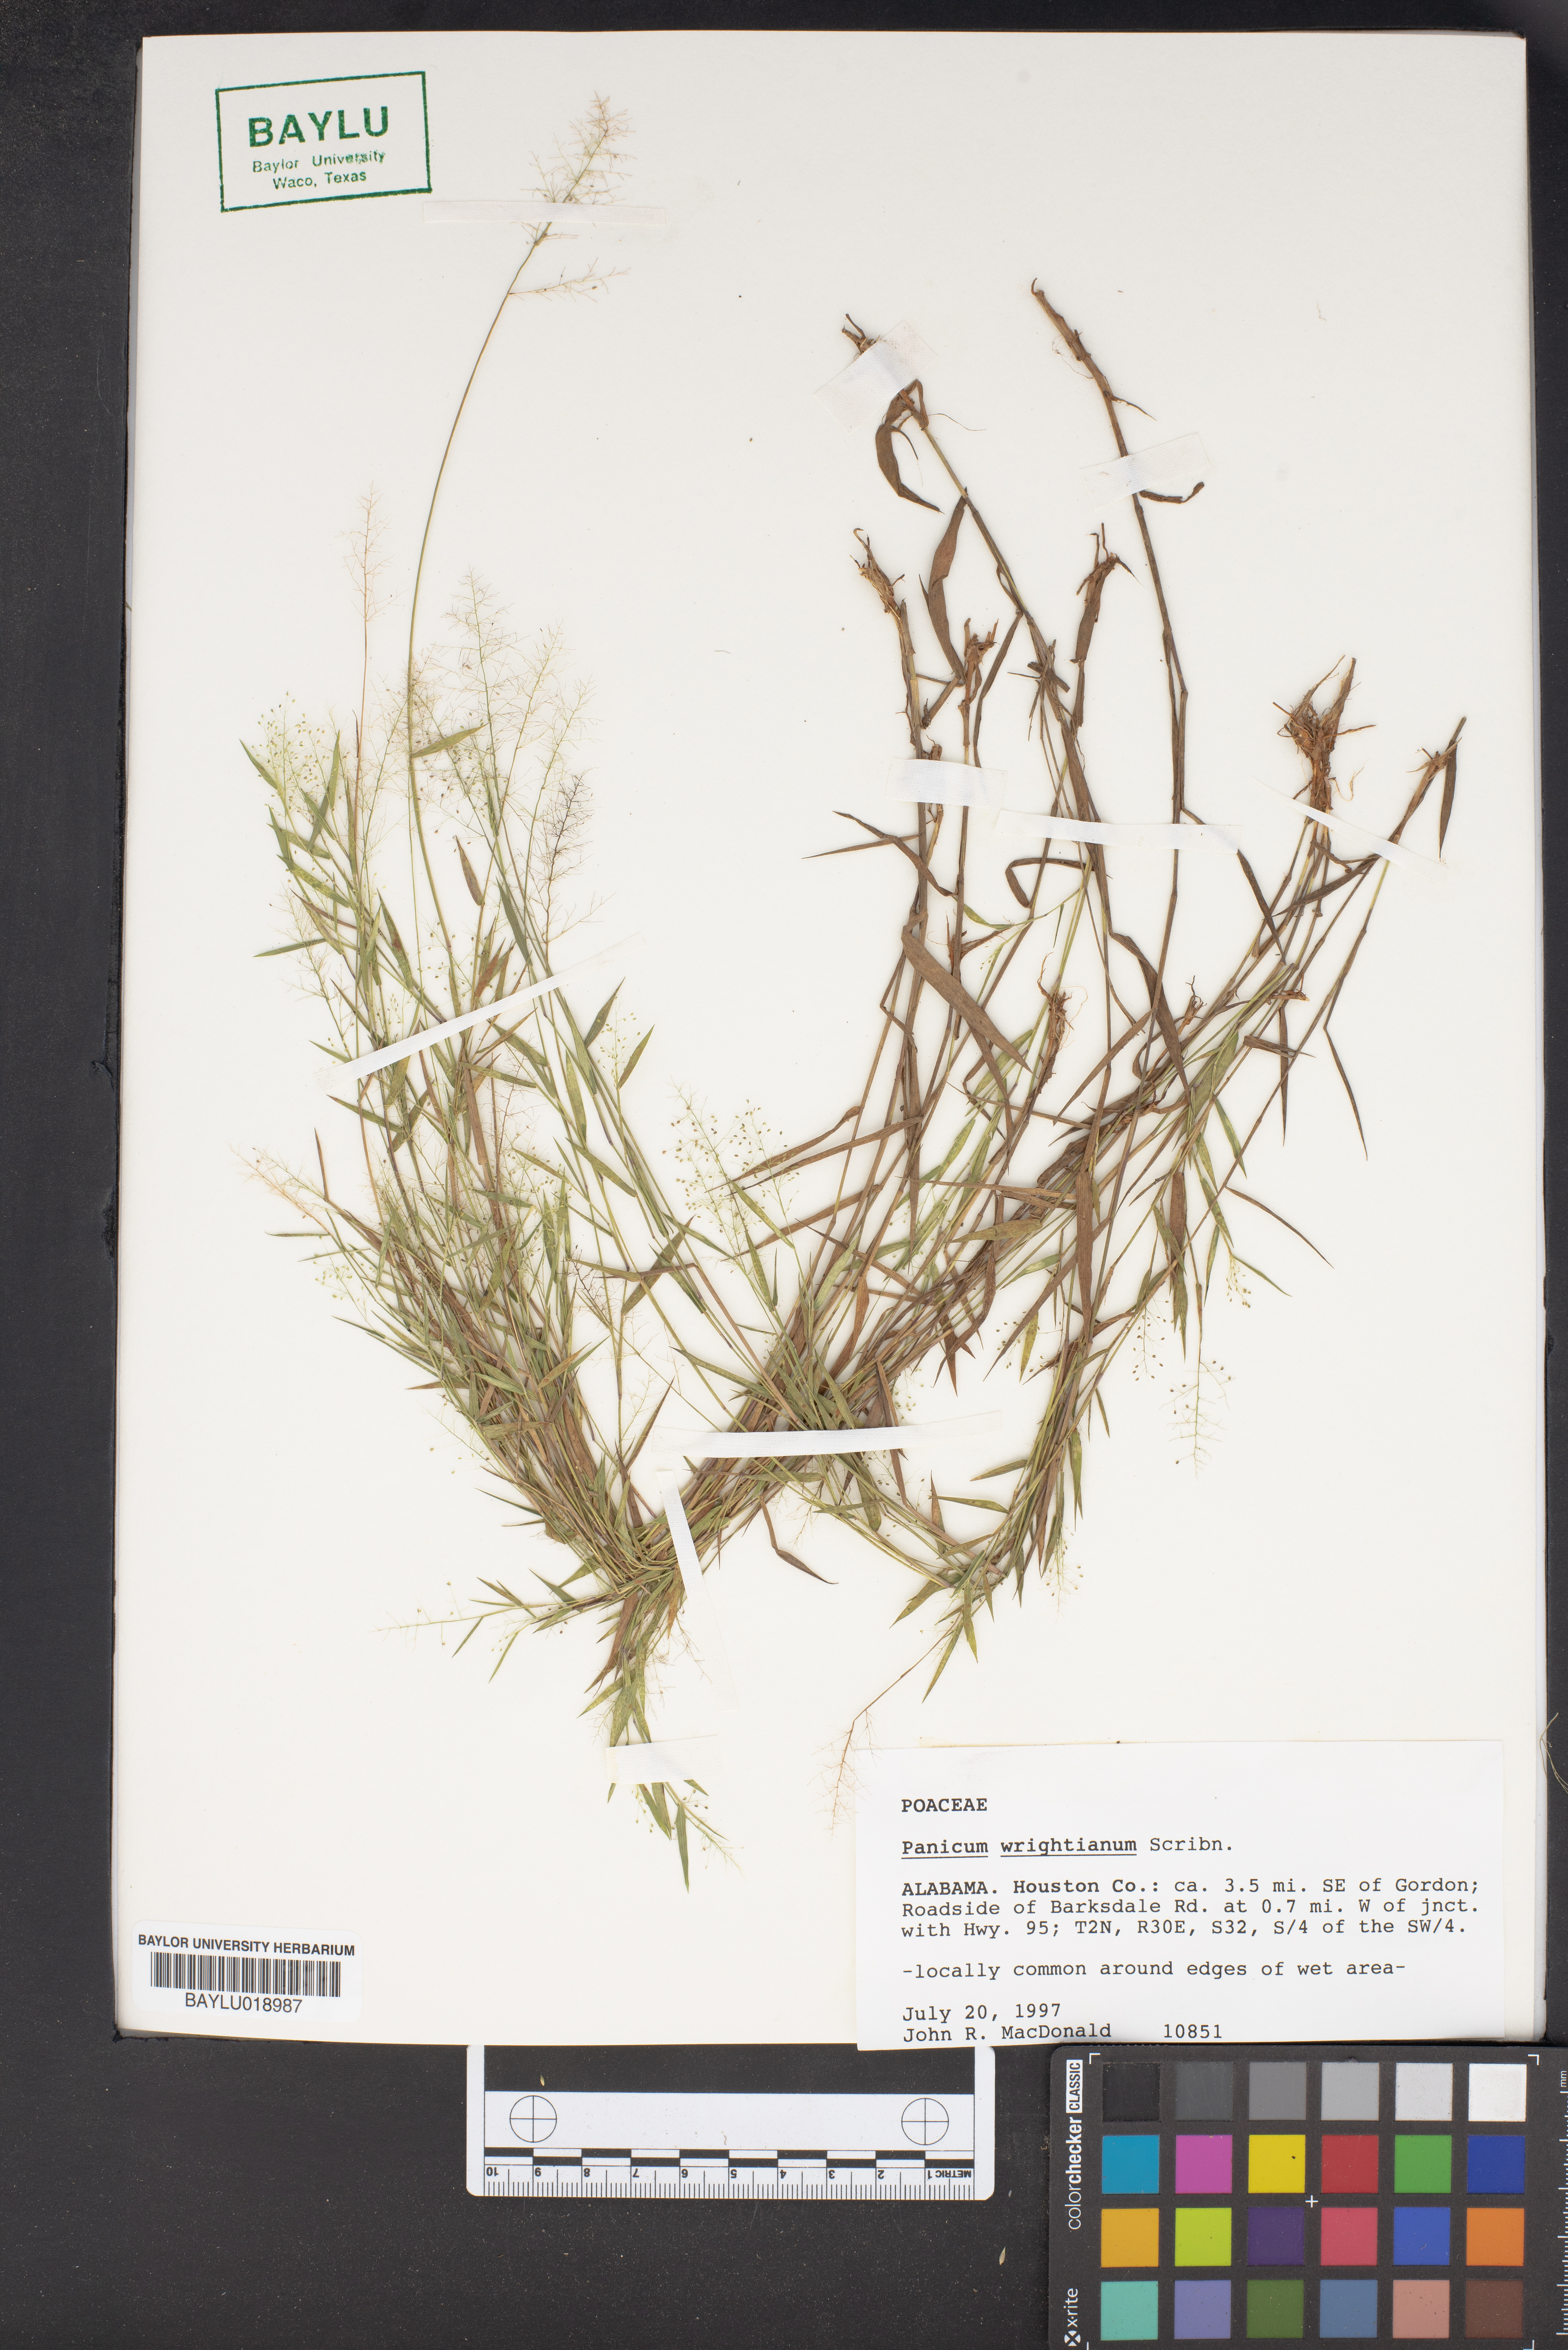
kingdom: Plantae
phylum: Tracheophyta
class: Liliopsida
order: Poales
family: Poaceae
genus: Dichanthelium
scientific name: Dichanthelium wrightianum
